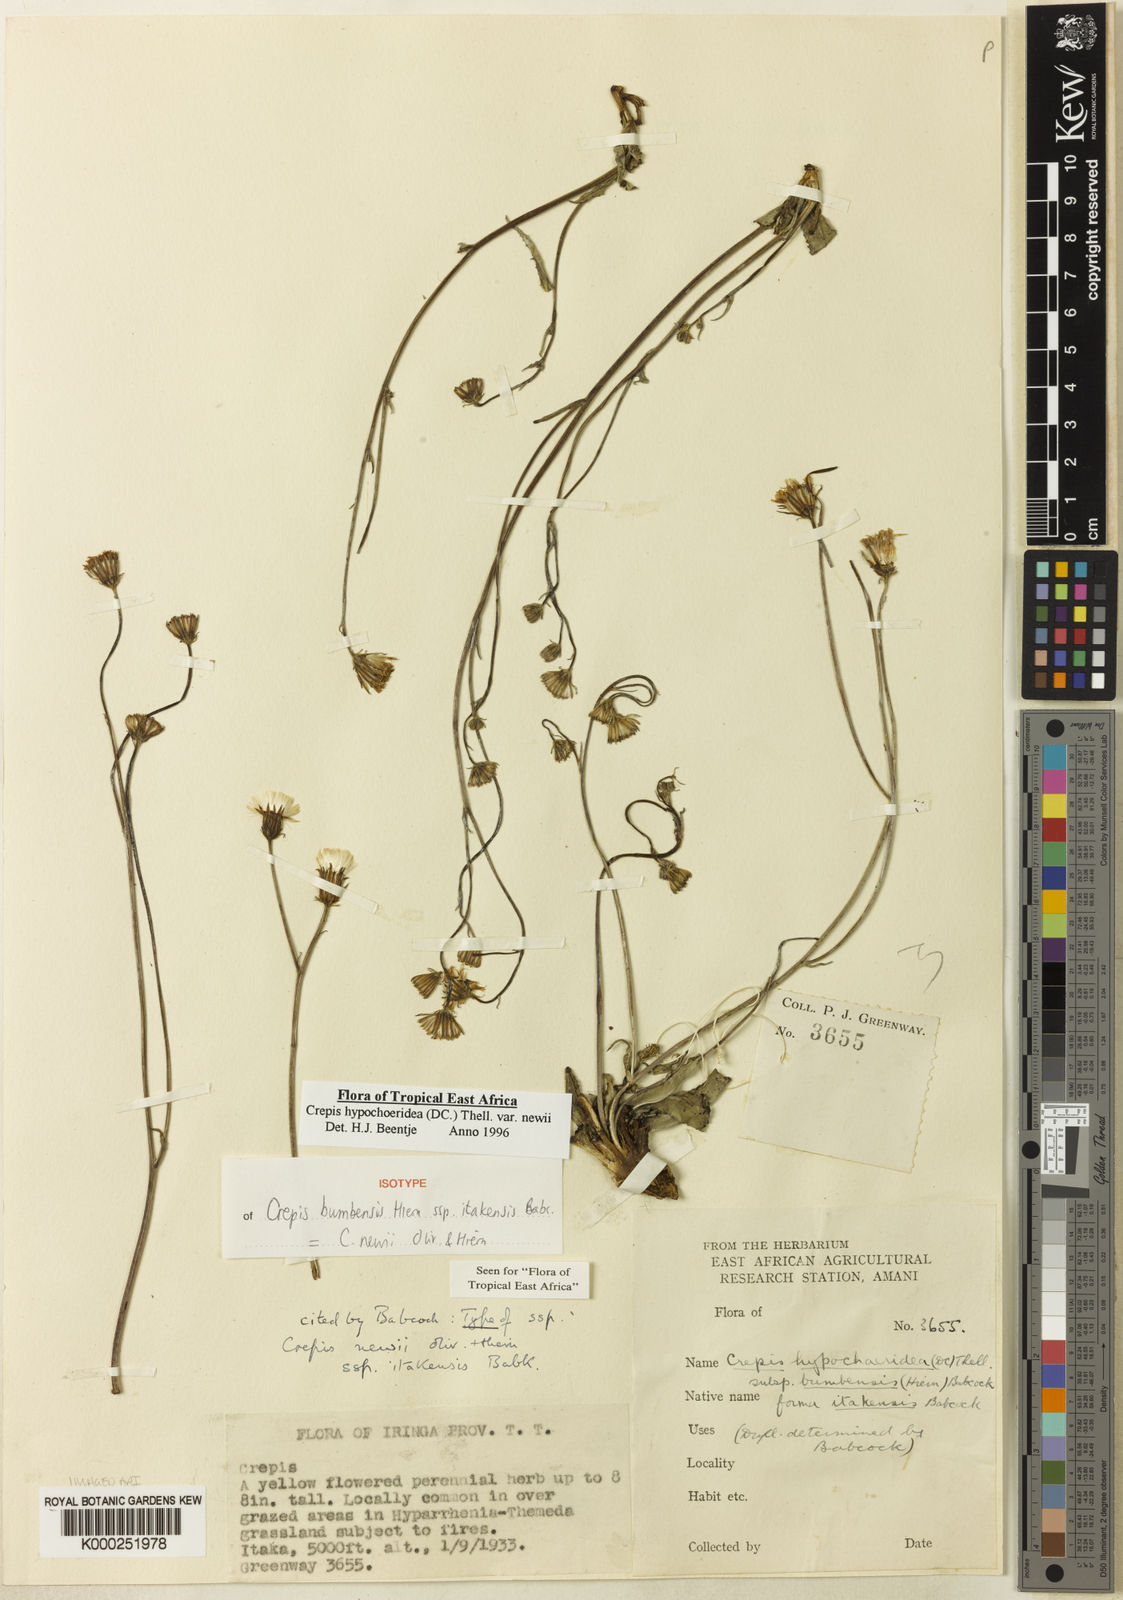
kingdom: Plantae
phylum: Tracheophyta
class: Magnoliopsida
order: Asterales
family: Asteraceae
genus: Crepis
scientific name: Crepis hypochoeridea
